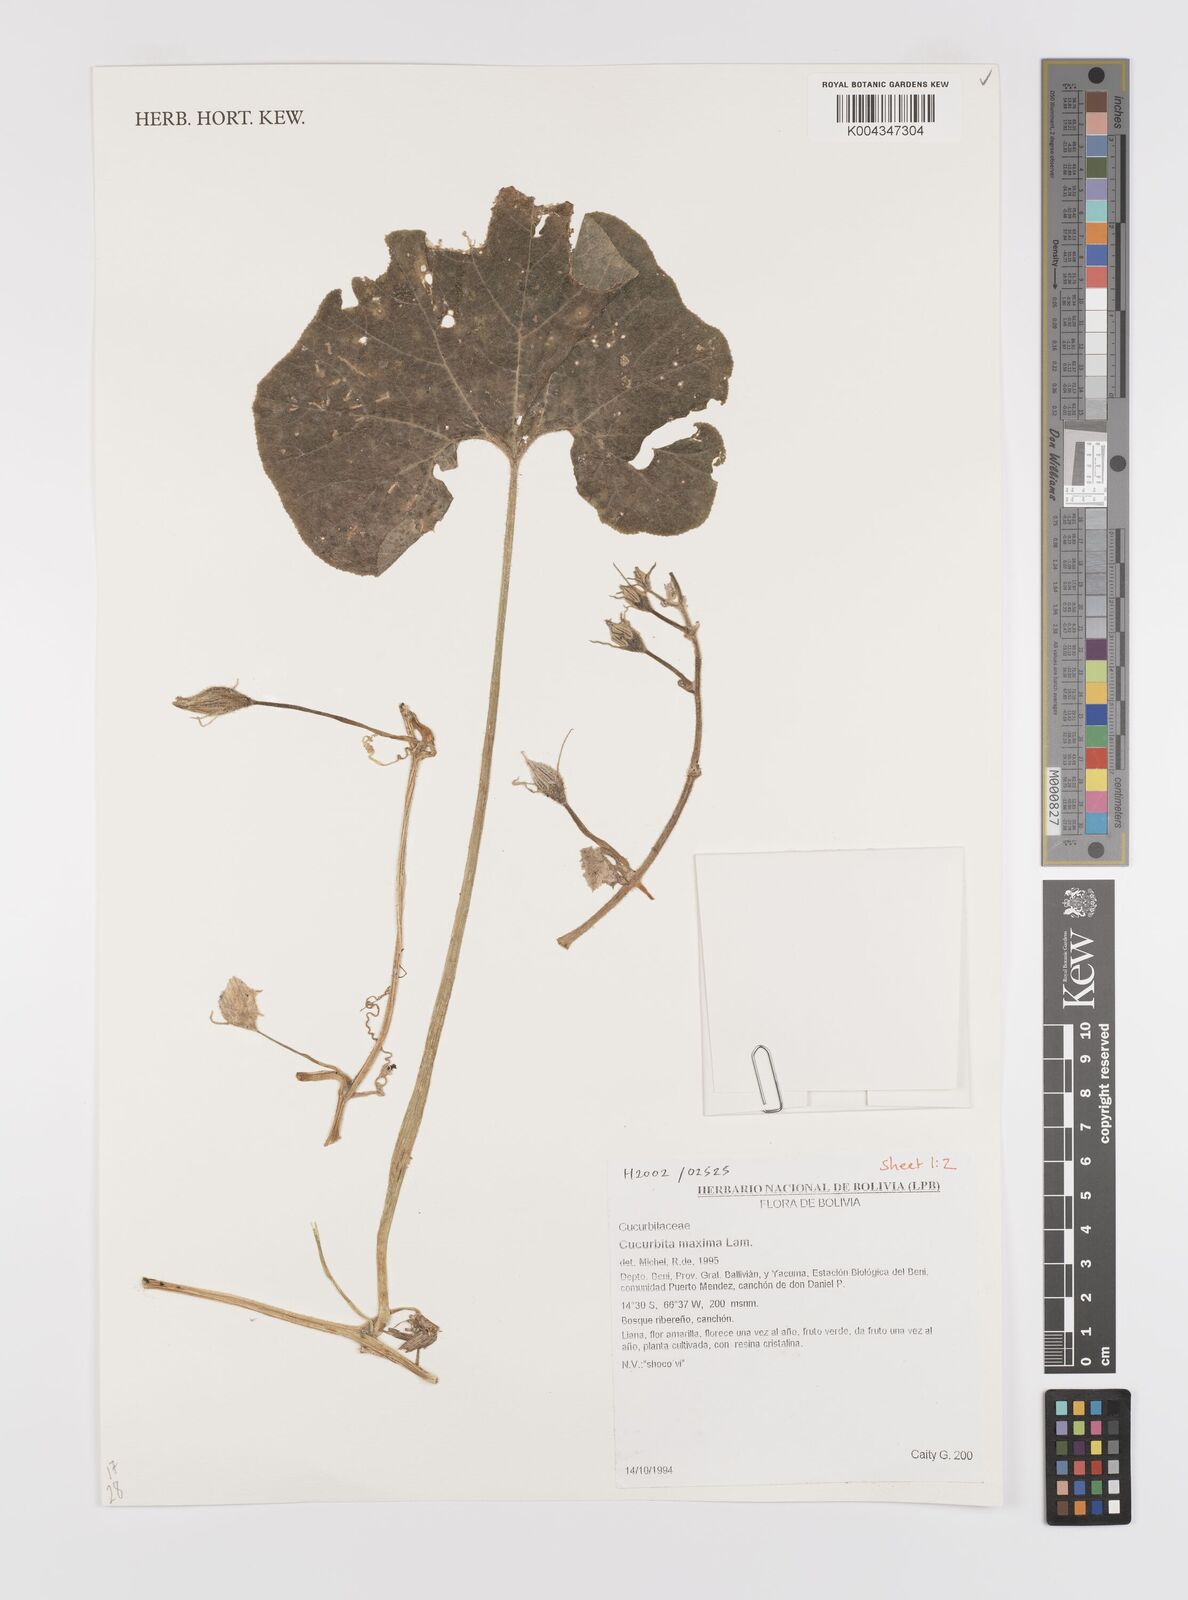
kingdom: Plantae
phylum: Tracheophyta
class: Magnoliopsida
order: Cucurbitales
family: Cucurbitaceae
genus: Cucurbita
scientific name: Cucurbita maxima
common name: Pumpkin
